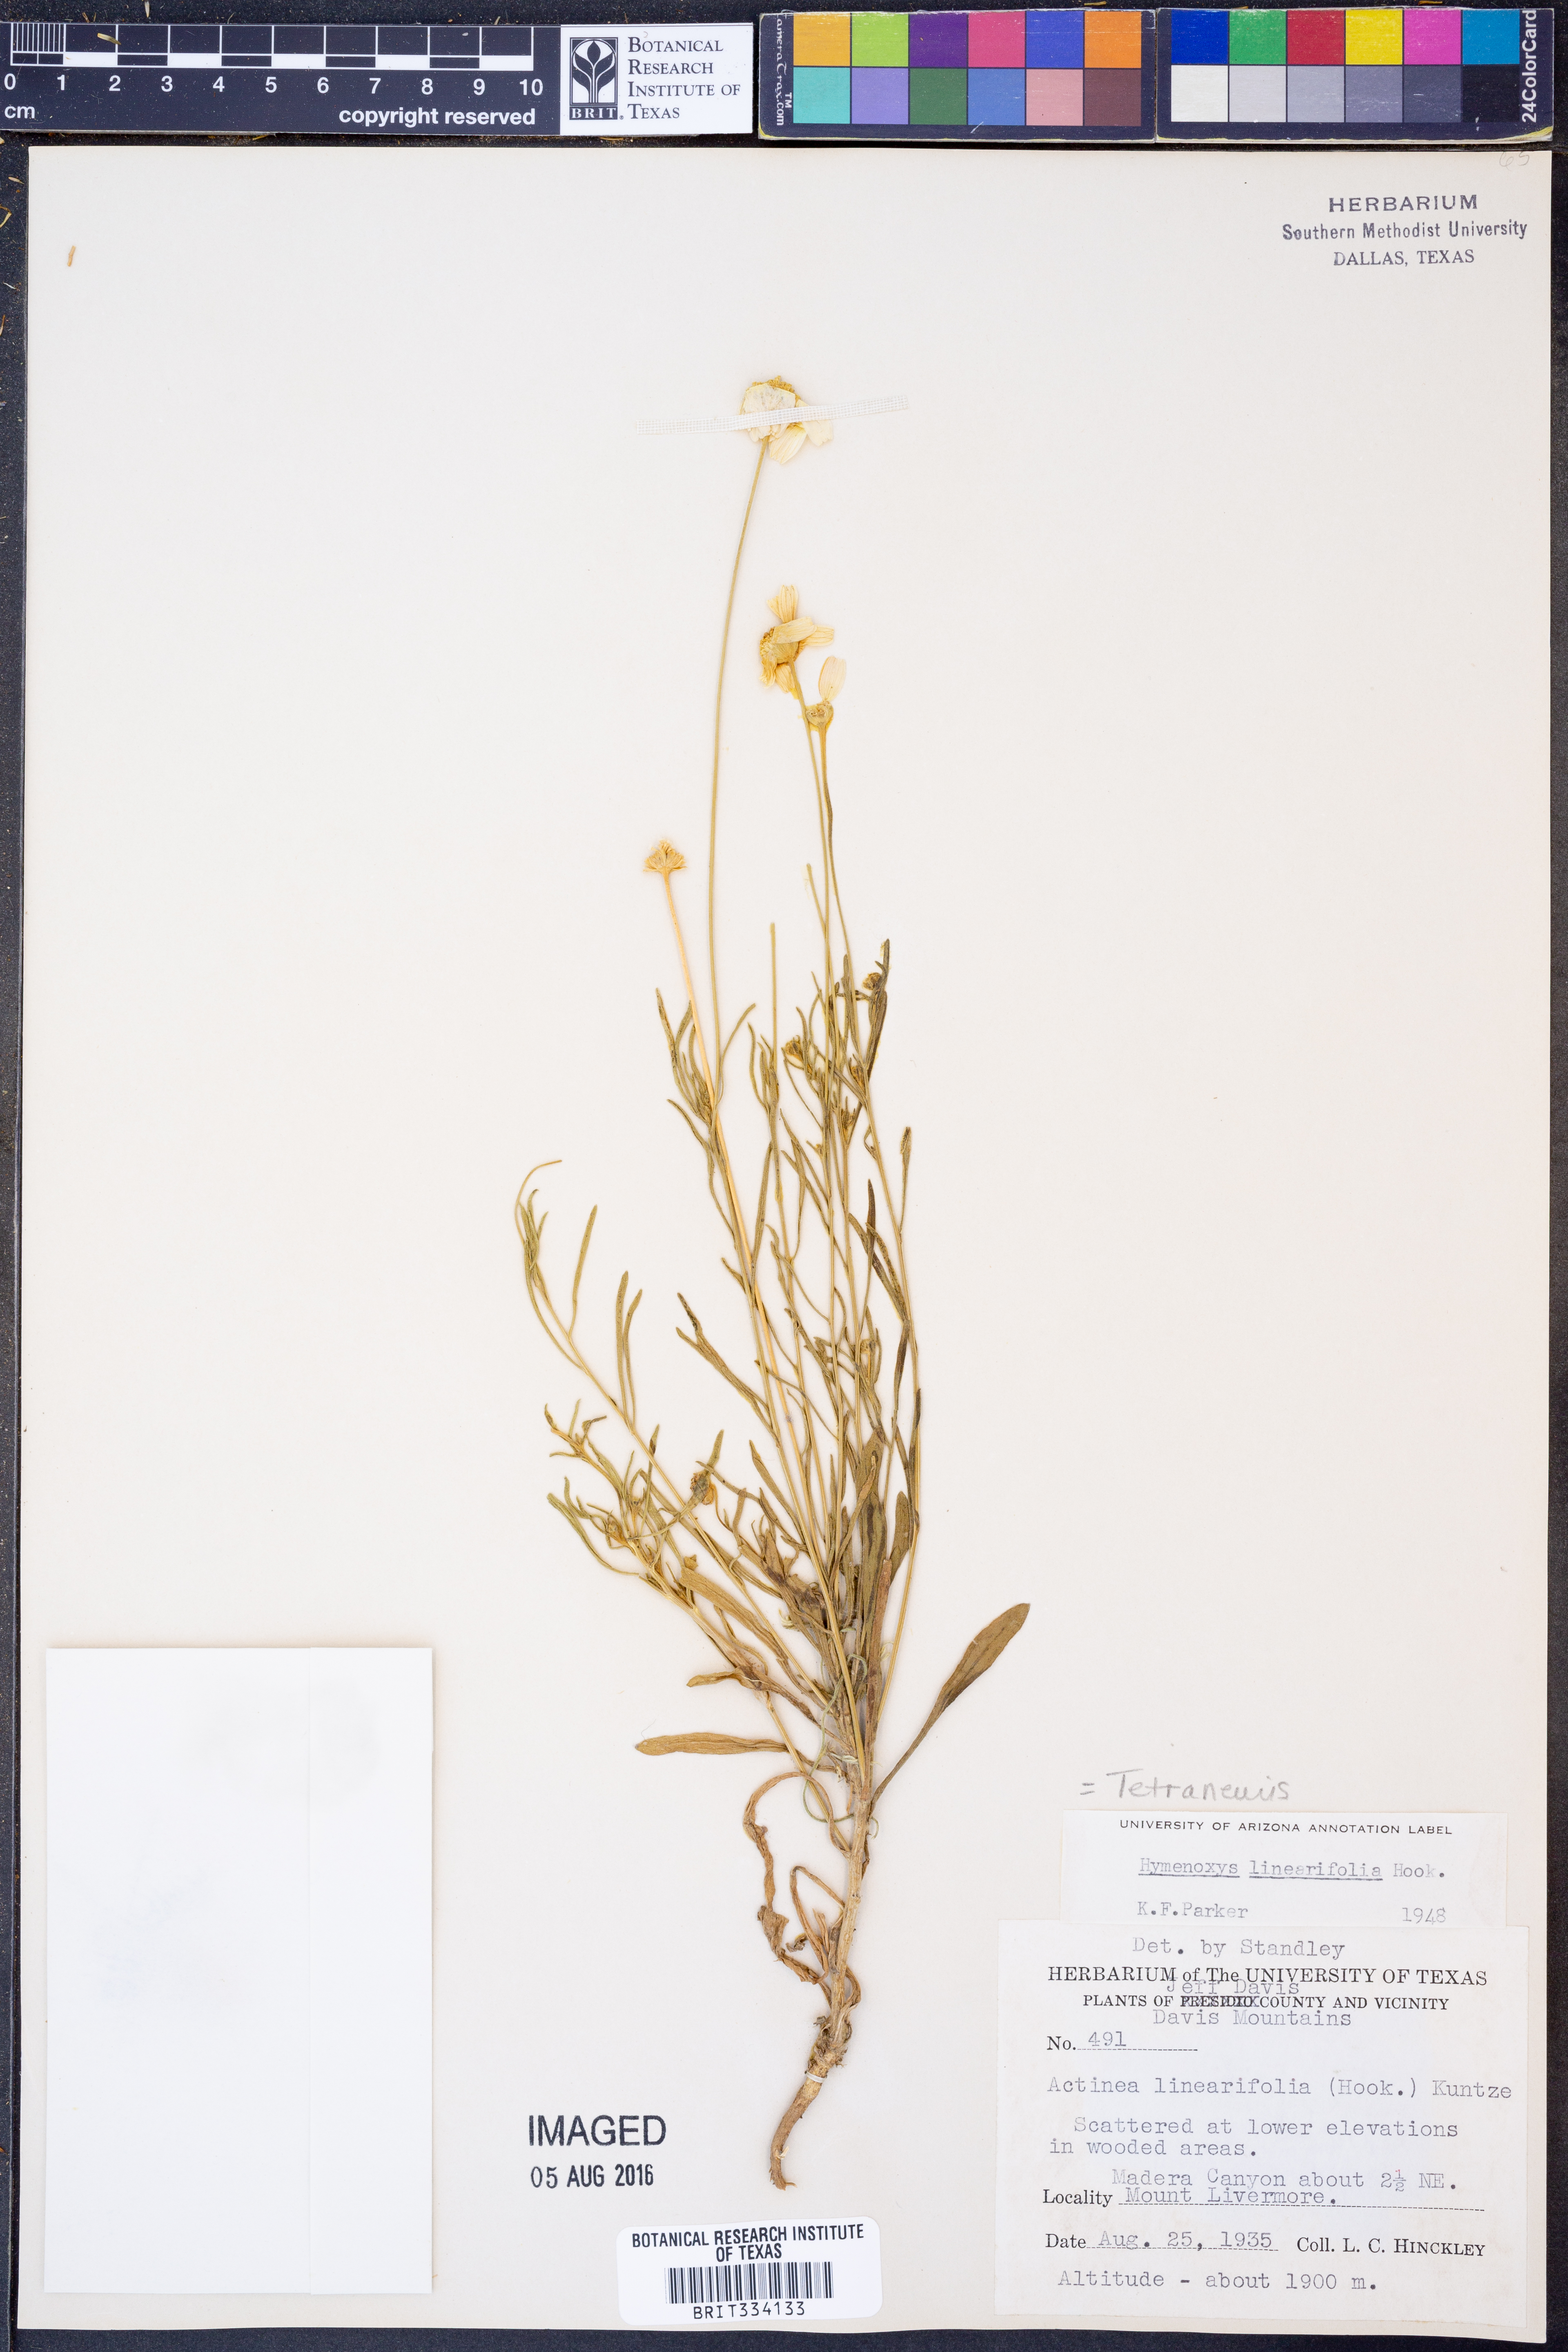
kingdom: Plantae
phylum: Tracheophyta
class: Magnoliopsida
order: Asterales
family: Asteraceae
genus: Tetraneuris
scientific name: Tetraneuris linearifolia
